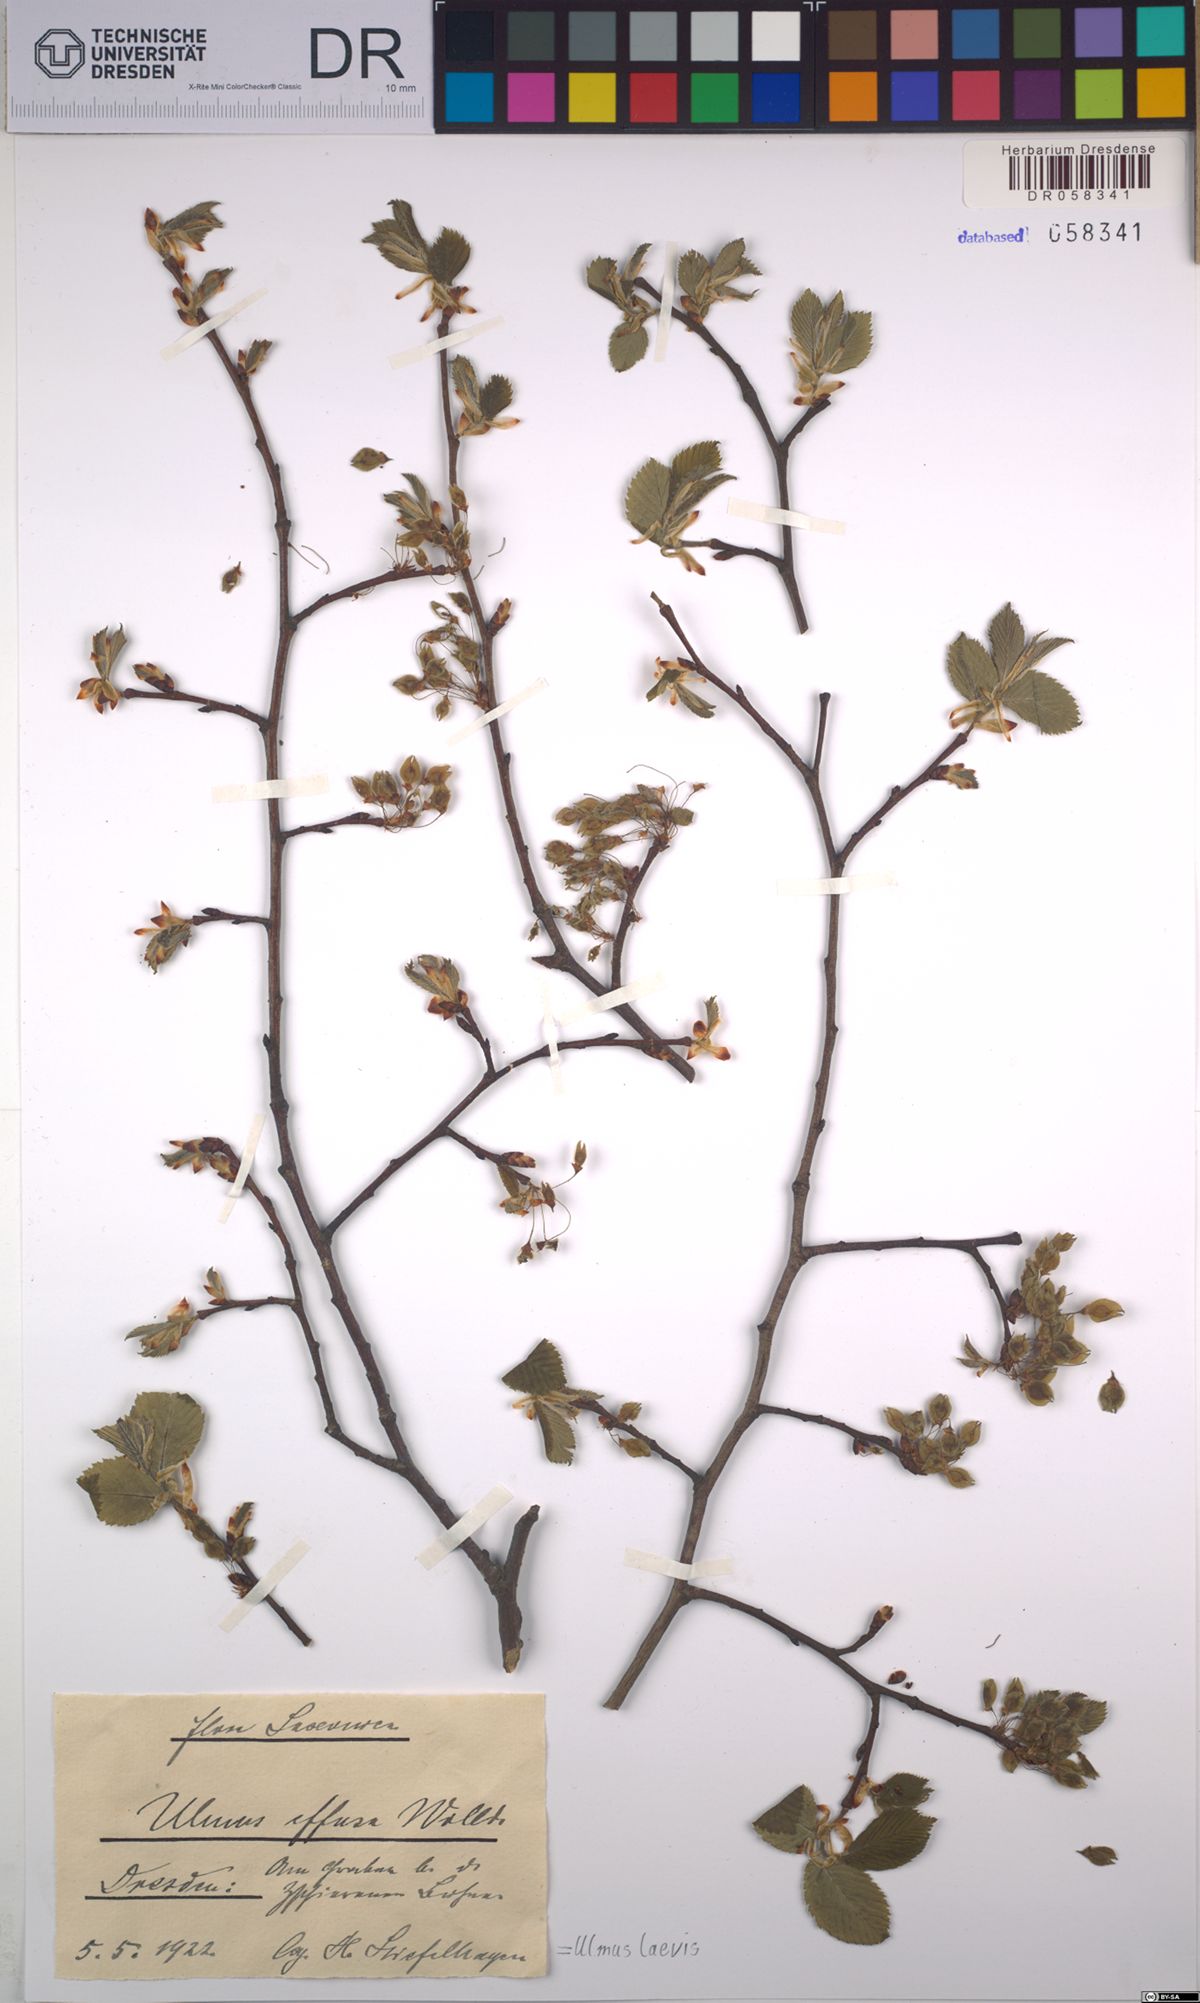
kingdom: Plantae
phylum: Tracheophyta
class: Magnoliopsida
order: Rosales
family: Ulmaceae
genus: Ulmus
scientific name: Ulmus laevis
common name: European white-elm
